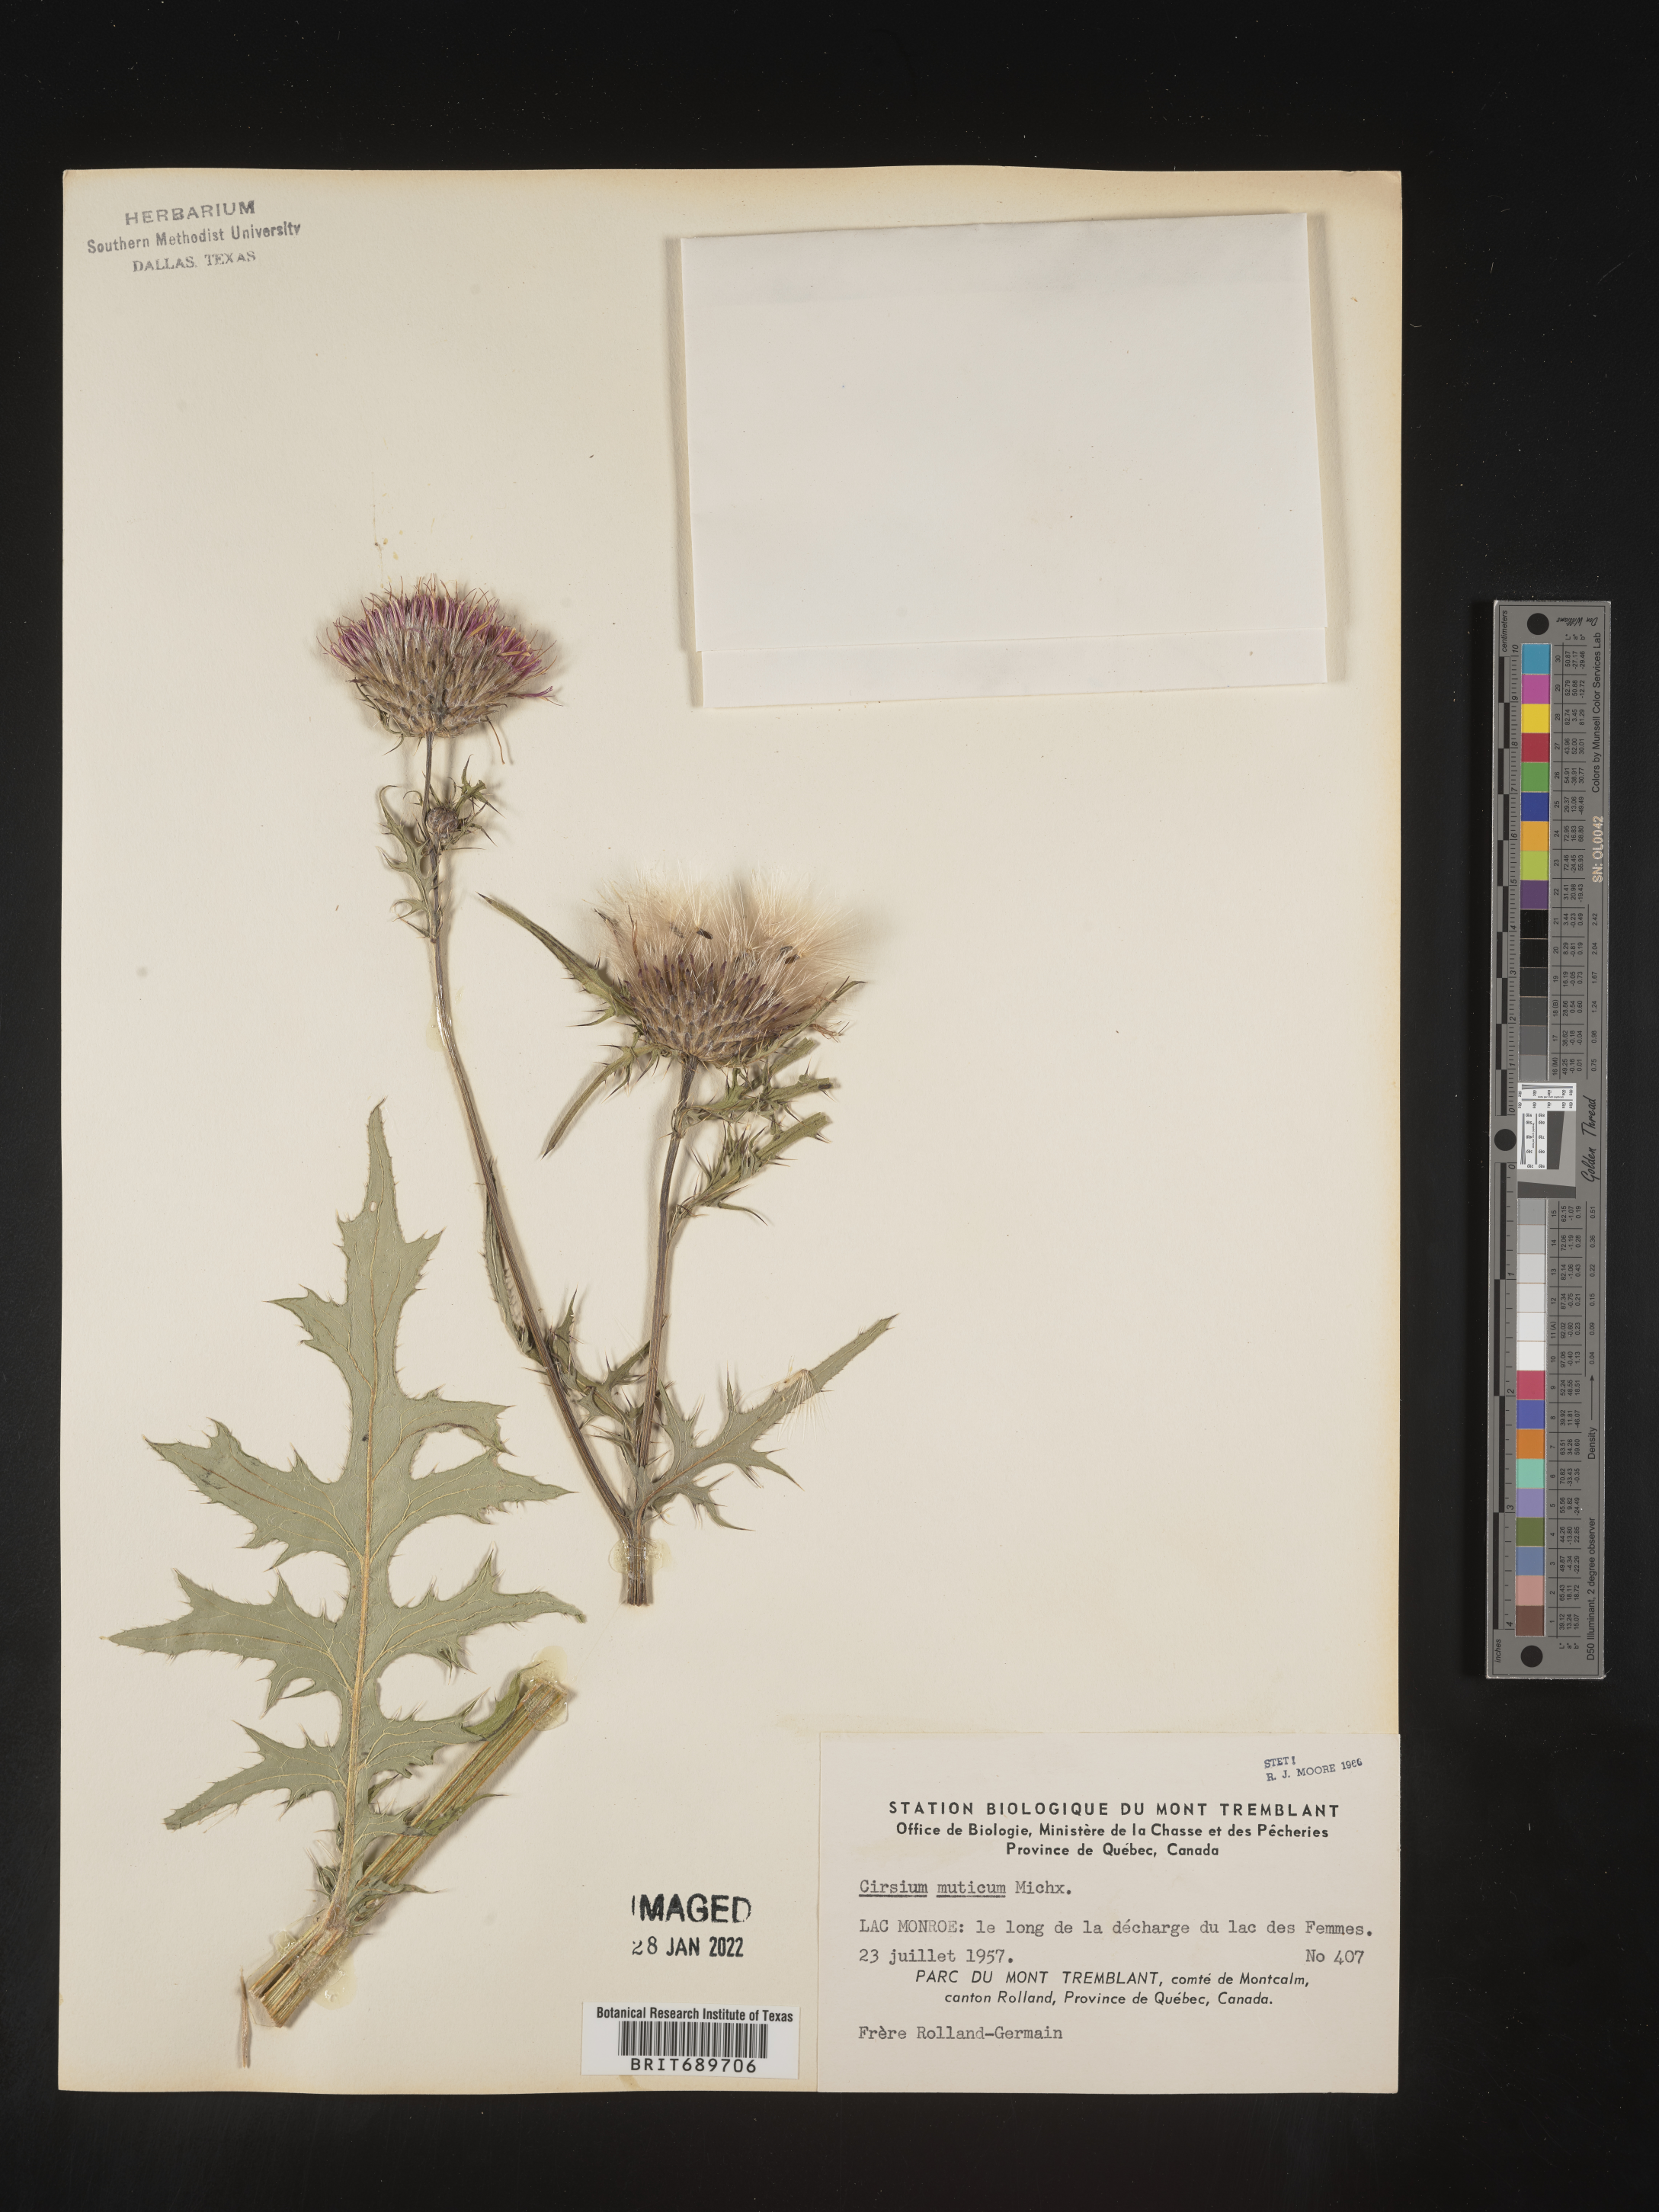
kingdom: Plantae
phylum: Tracheophyta
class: Magnoliopsida
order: Asterales
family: Asteraceae
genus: Cirsium
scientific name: Cirsium muticum
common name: Dunce-nettle
